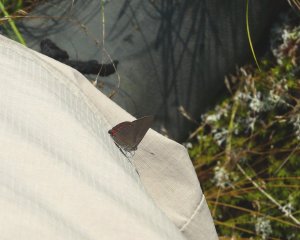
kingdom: Animalia
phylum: Arthropoda
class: Insecta
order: Lepidoptera
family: Lycaenidae
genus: Harkenclenus
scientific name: Harkenclenus titus
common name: Coral Hairstreak
